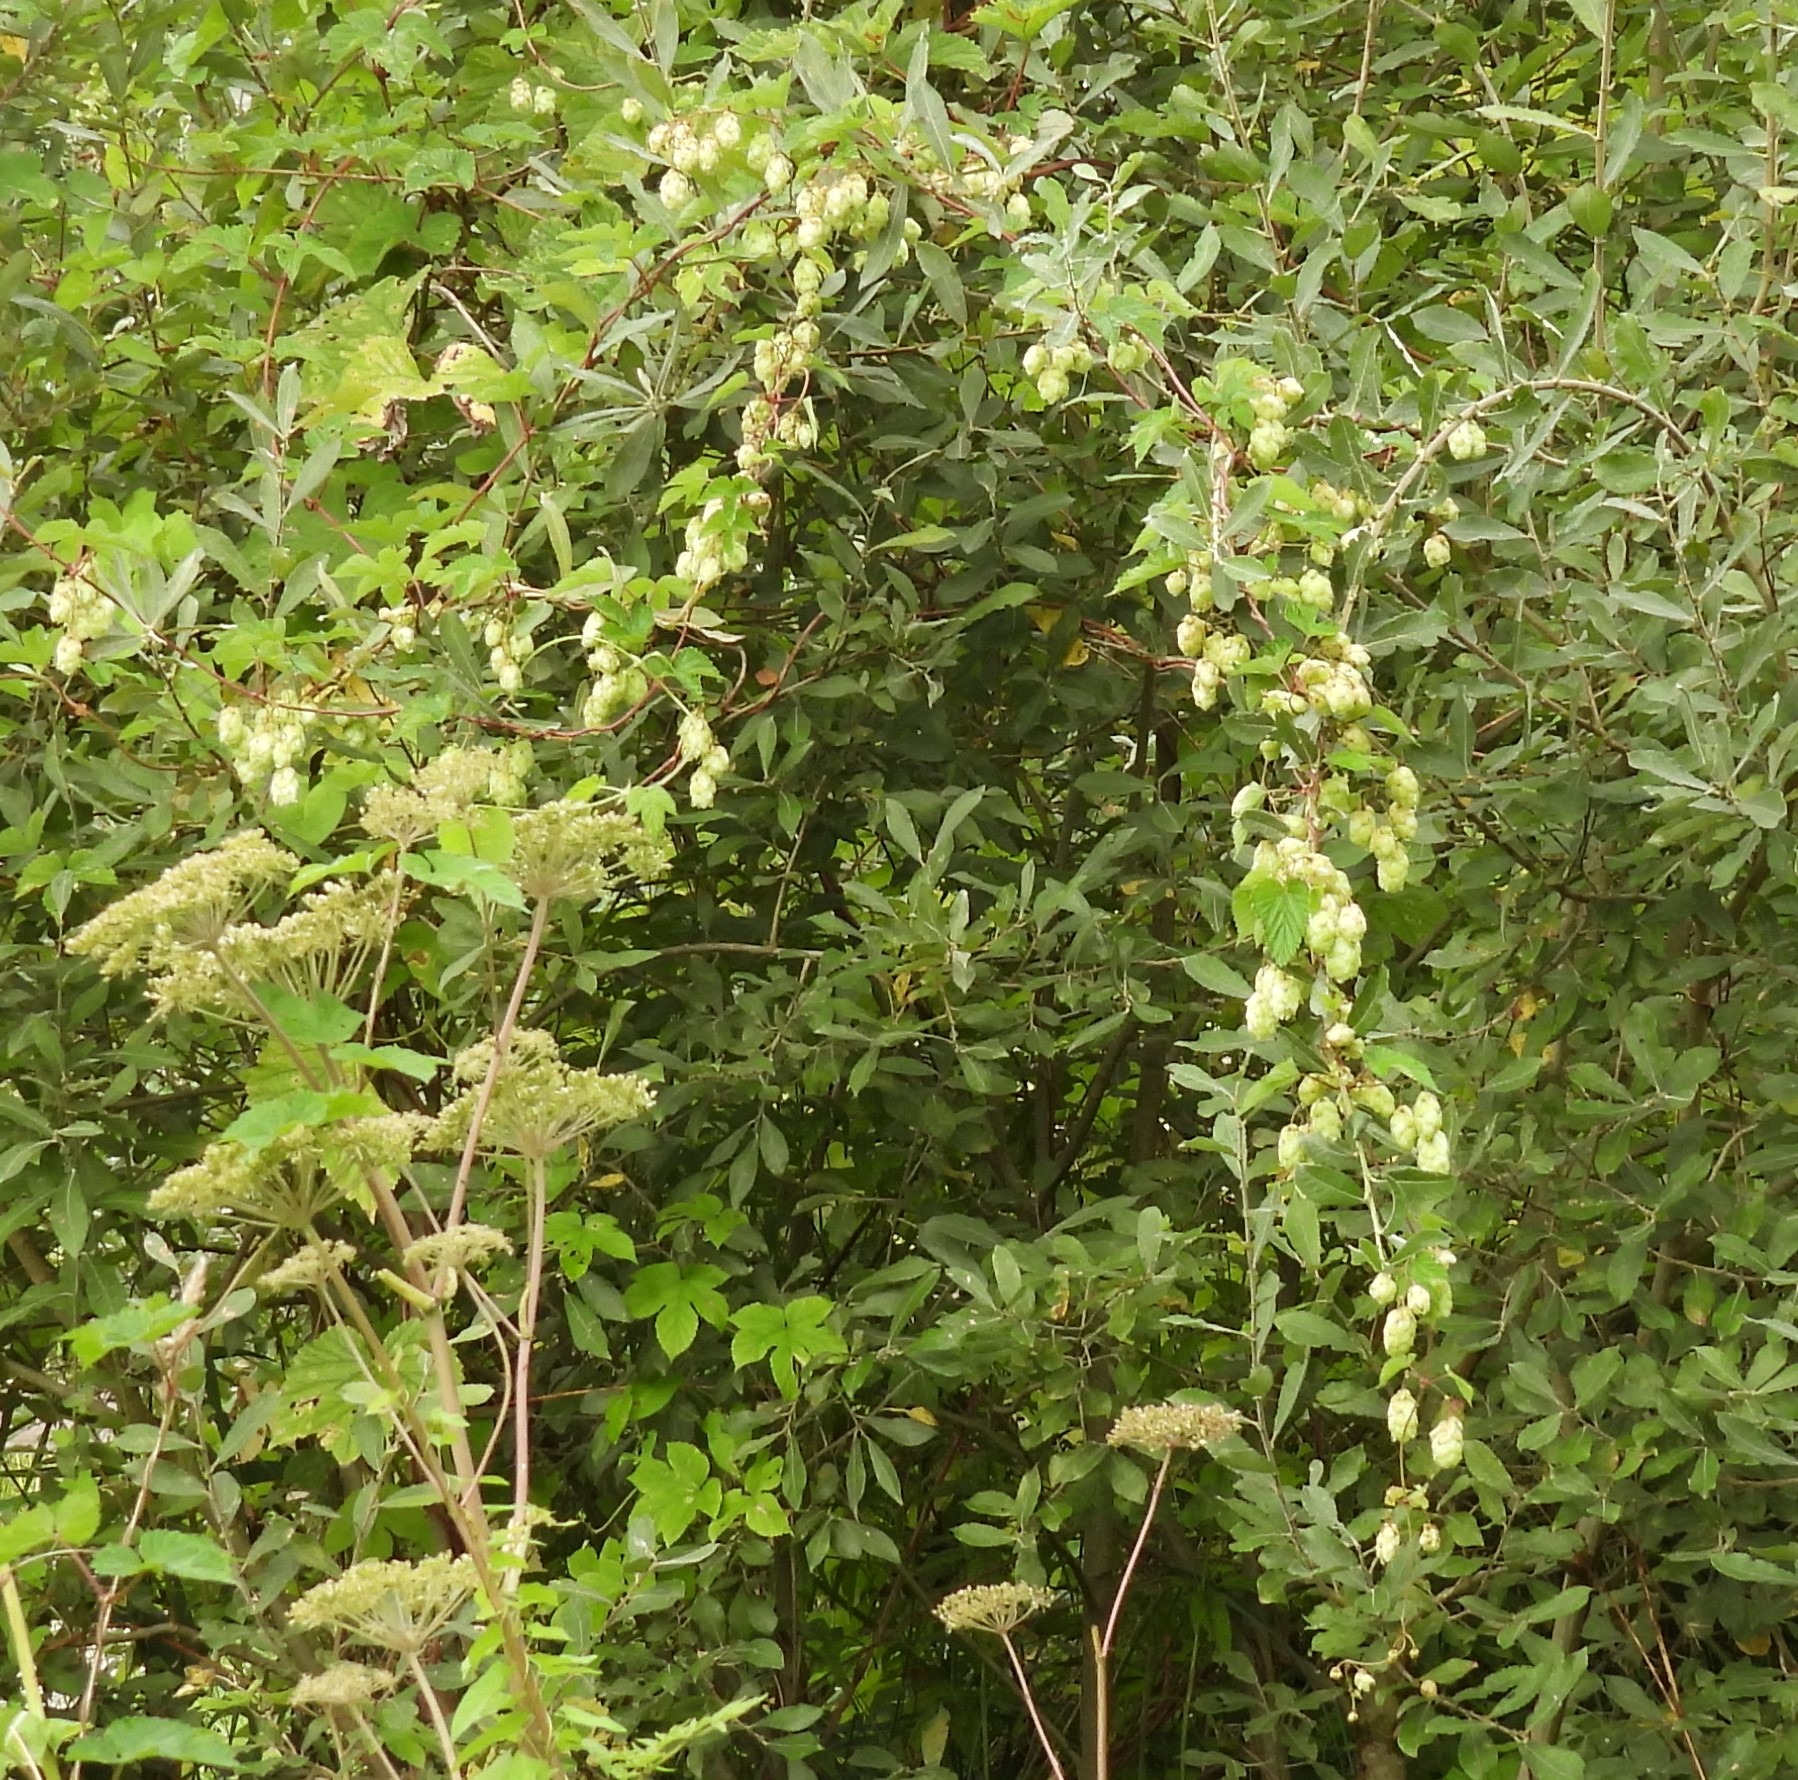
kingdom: Plantae
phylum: Tracheophyta
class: Magnoliopsida
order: Rosales
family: Cannabaceae
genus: Humulus
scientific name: Humulus lupulus
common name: Humle
